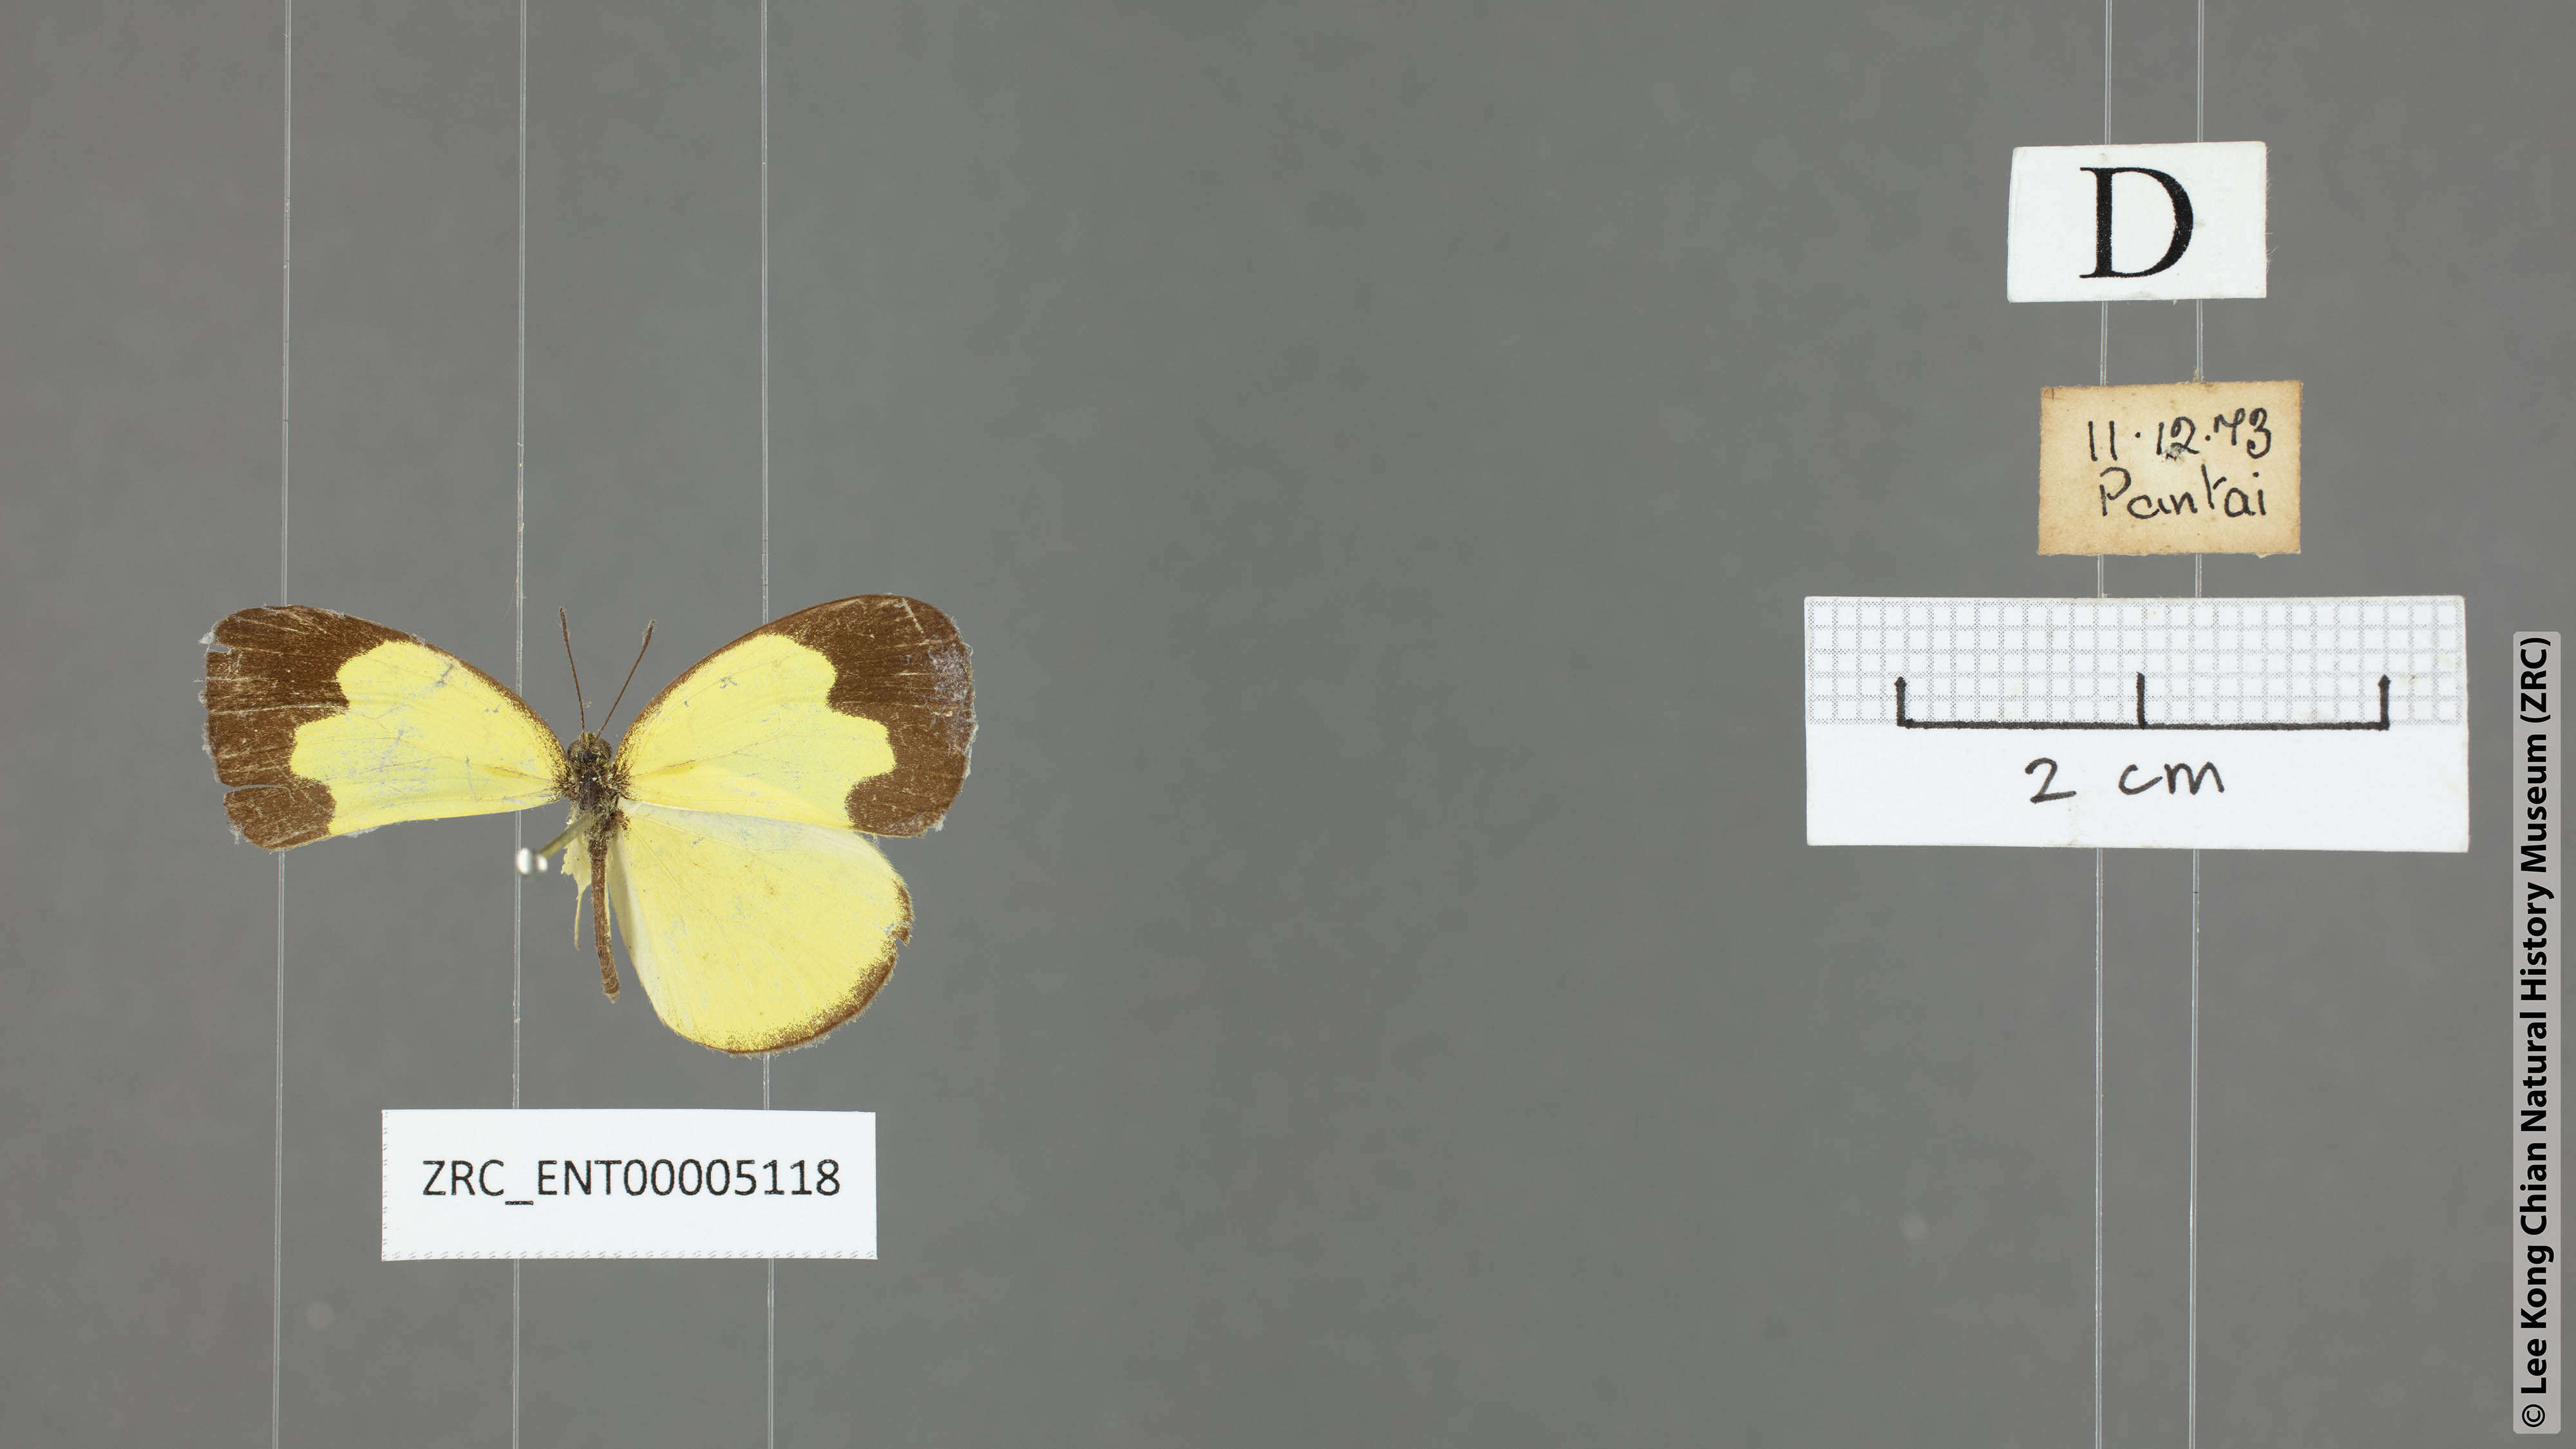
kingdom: Animalia
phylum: Arthropoda
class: Insecta
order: Lepidoptera
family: Pieridae
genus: Eurema
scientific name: Eurema ada
